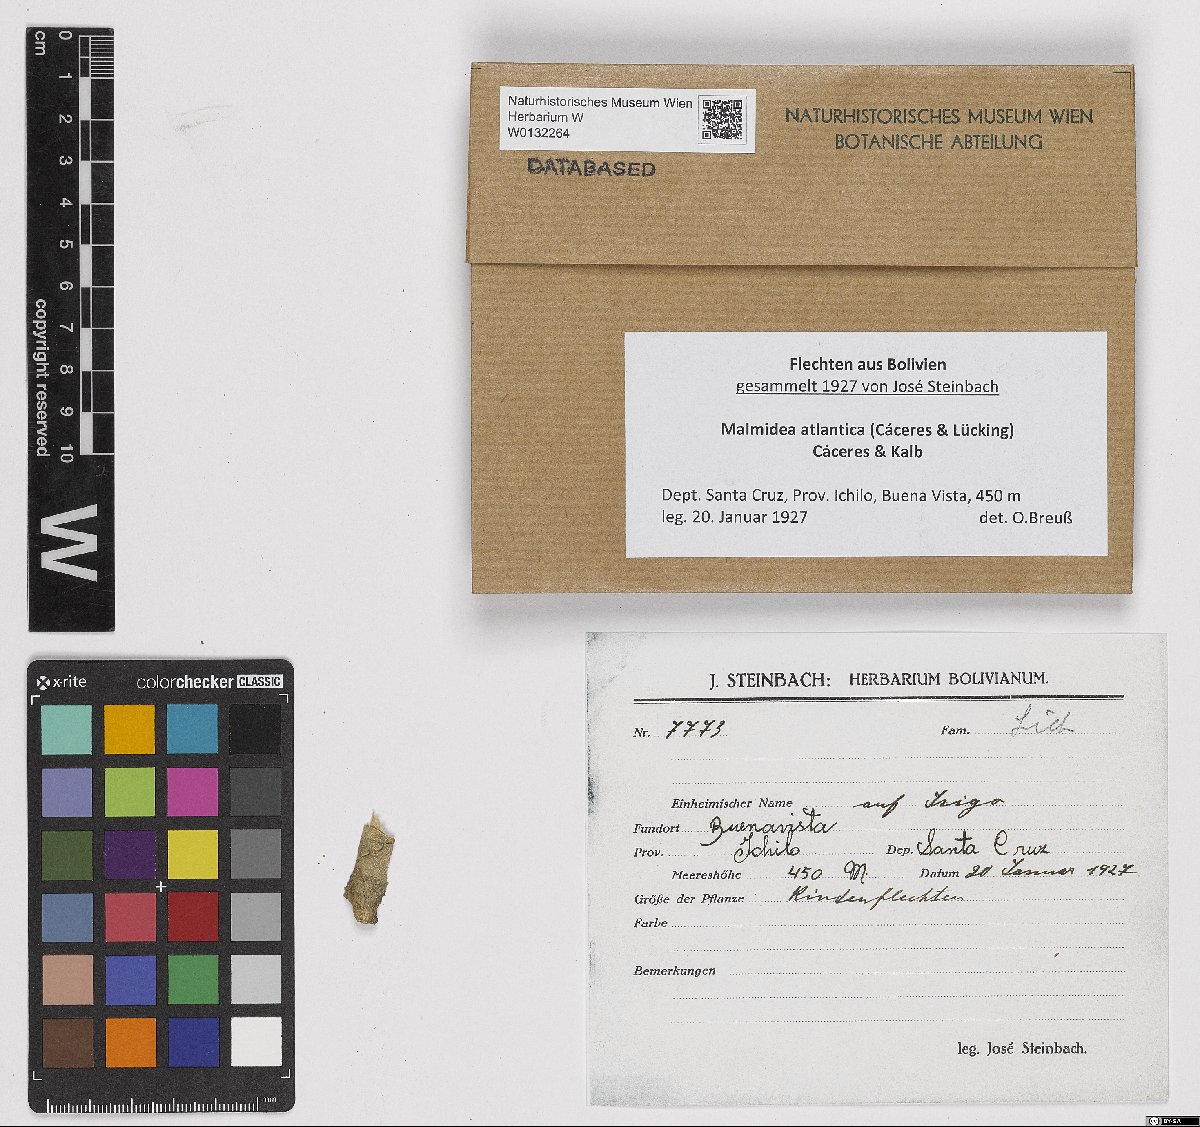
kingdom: Fungi
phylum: Ascomycota
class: Lecanoromycetes
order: Lecanorales
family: Malmideaceae
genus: Malmidea
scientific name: Malmidea atlantica
